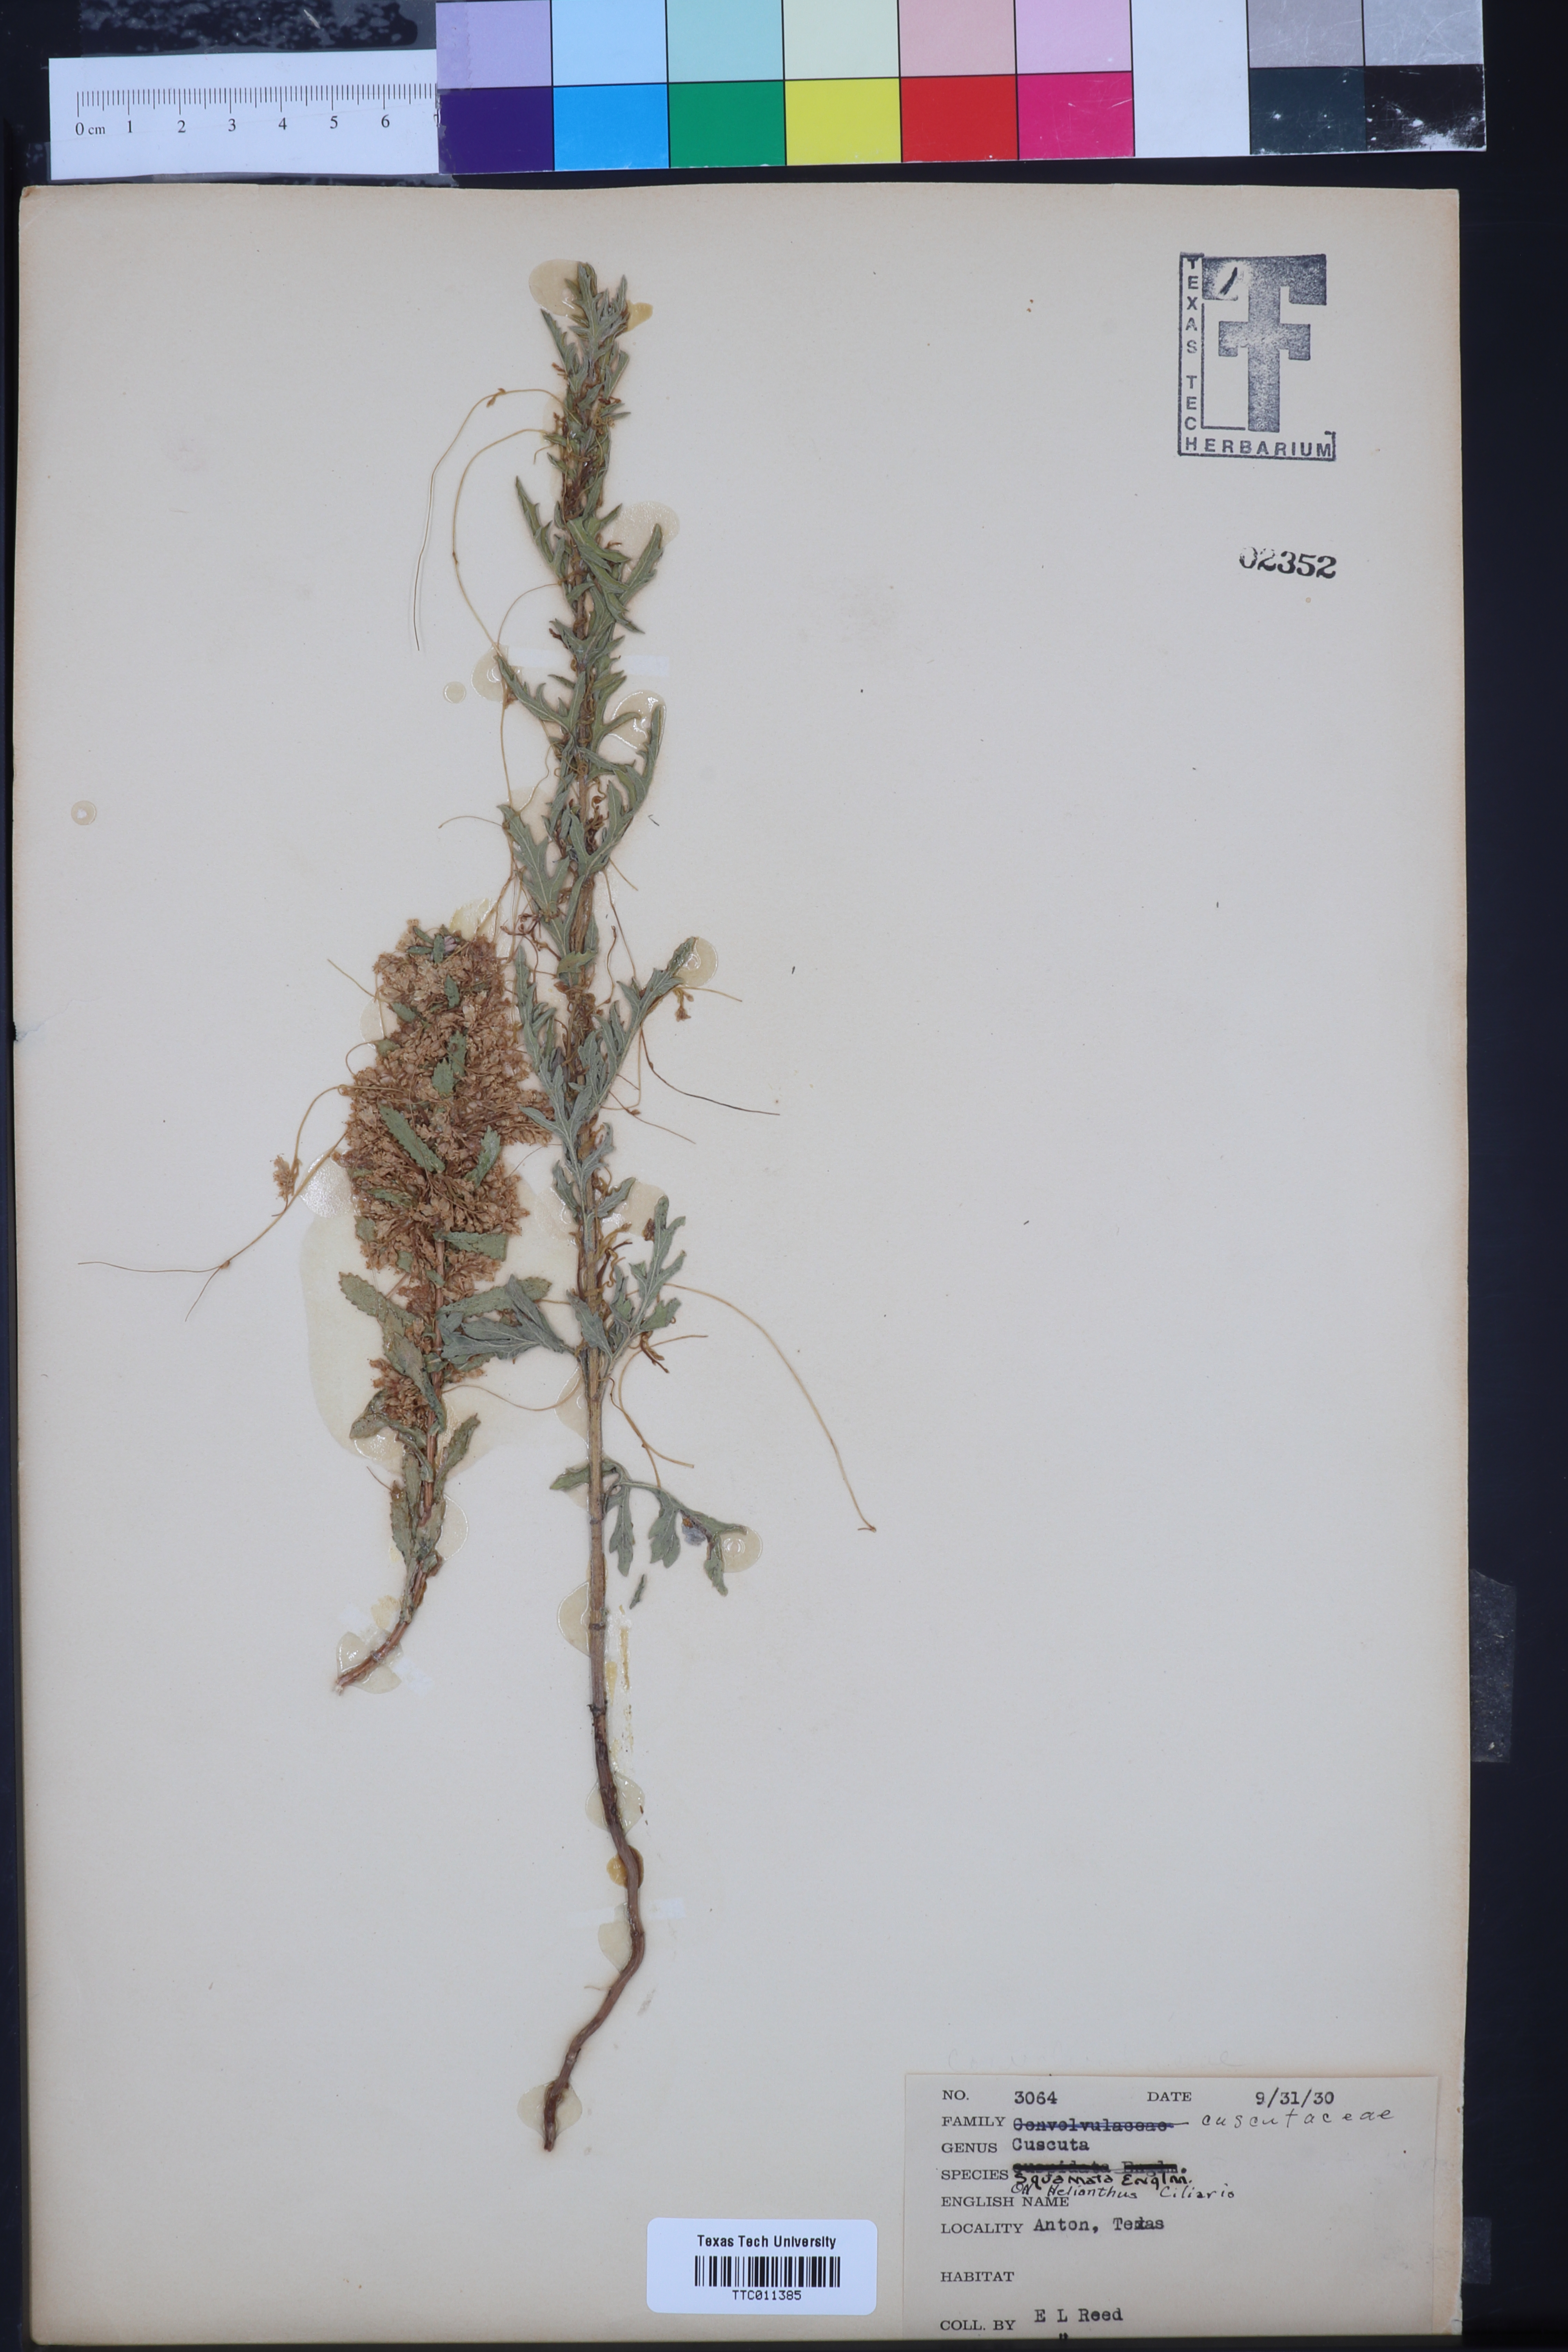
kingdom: Plantae
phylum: Tracheophyta
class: Magnoliopsida
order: Solanales
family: Convolvulaceae
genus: Cuscuta
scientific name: Cuscuta squamata
